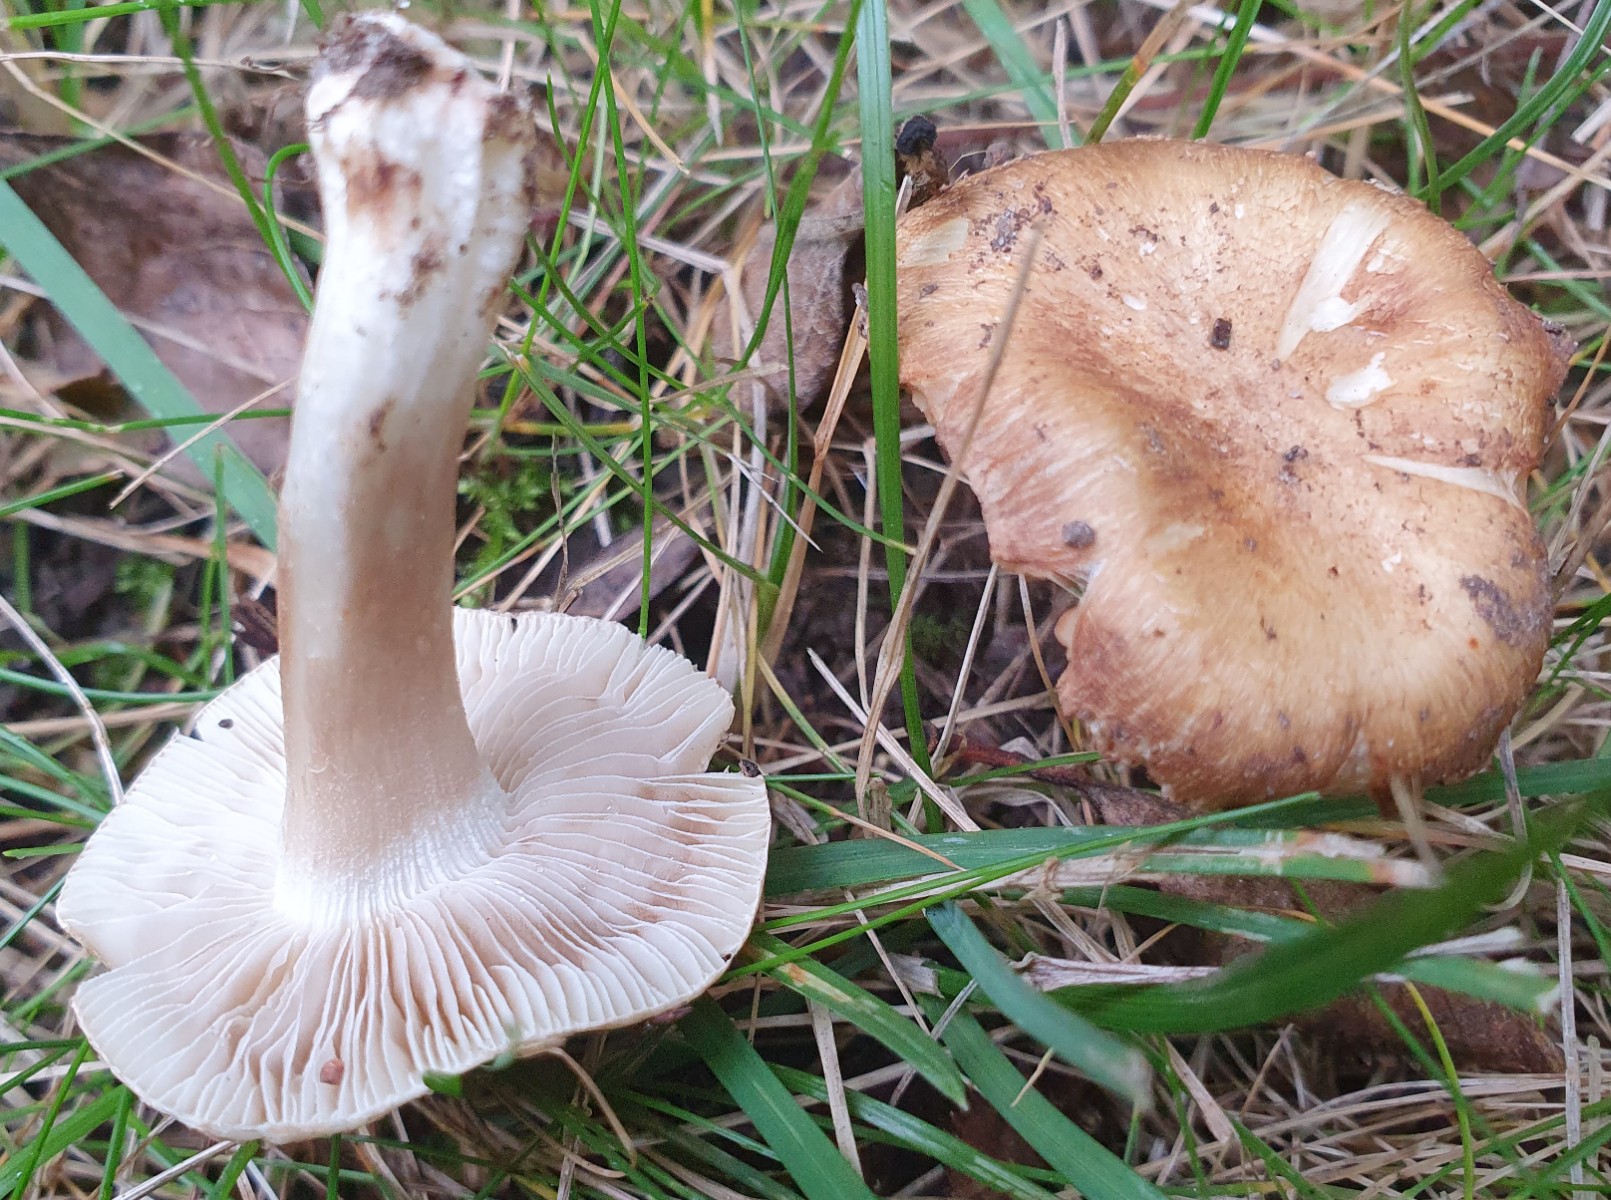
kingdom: Fungi
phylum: Basidiomycota
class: Agaricomycetes
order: Agaricales
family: Inocybaceae
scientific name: Inocybaceae
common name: trævlhatfamilien
